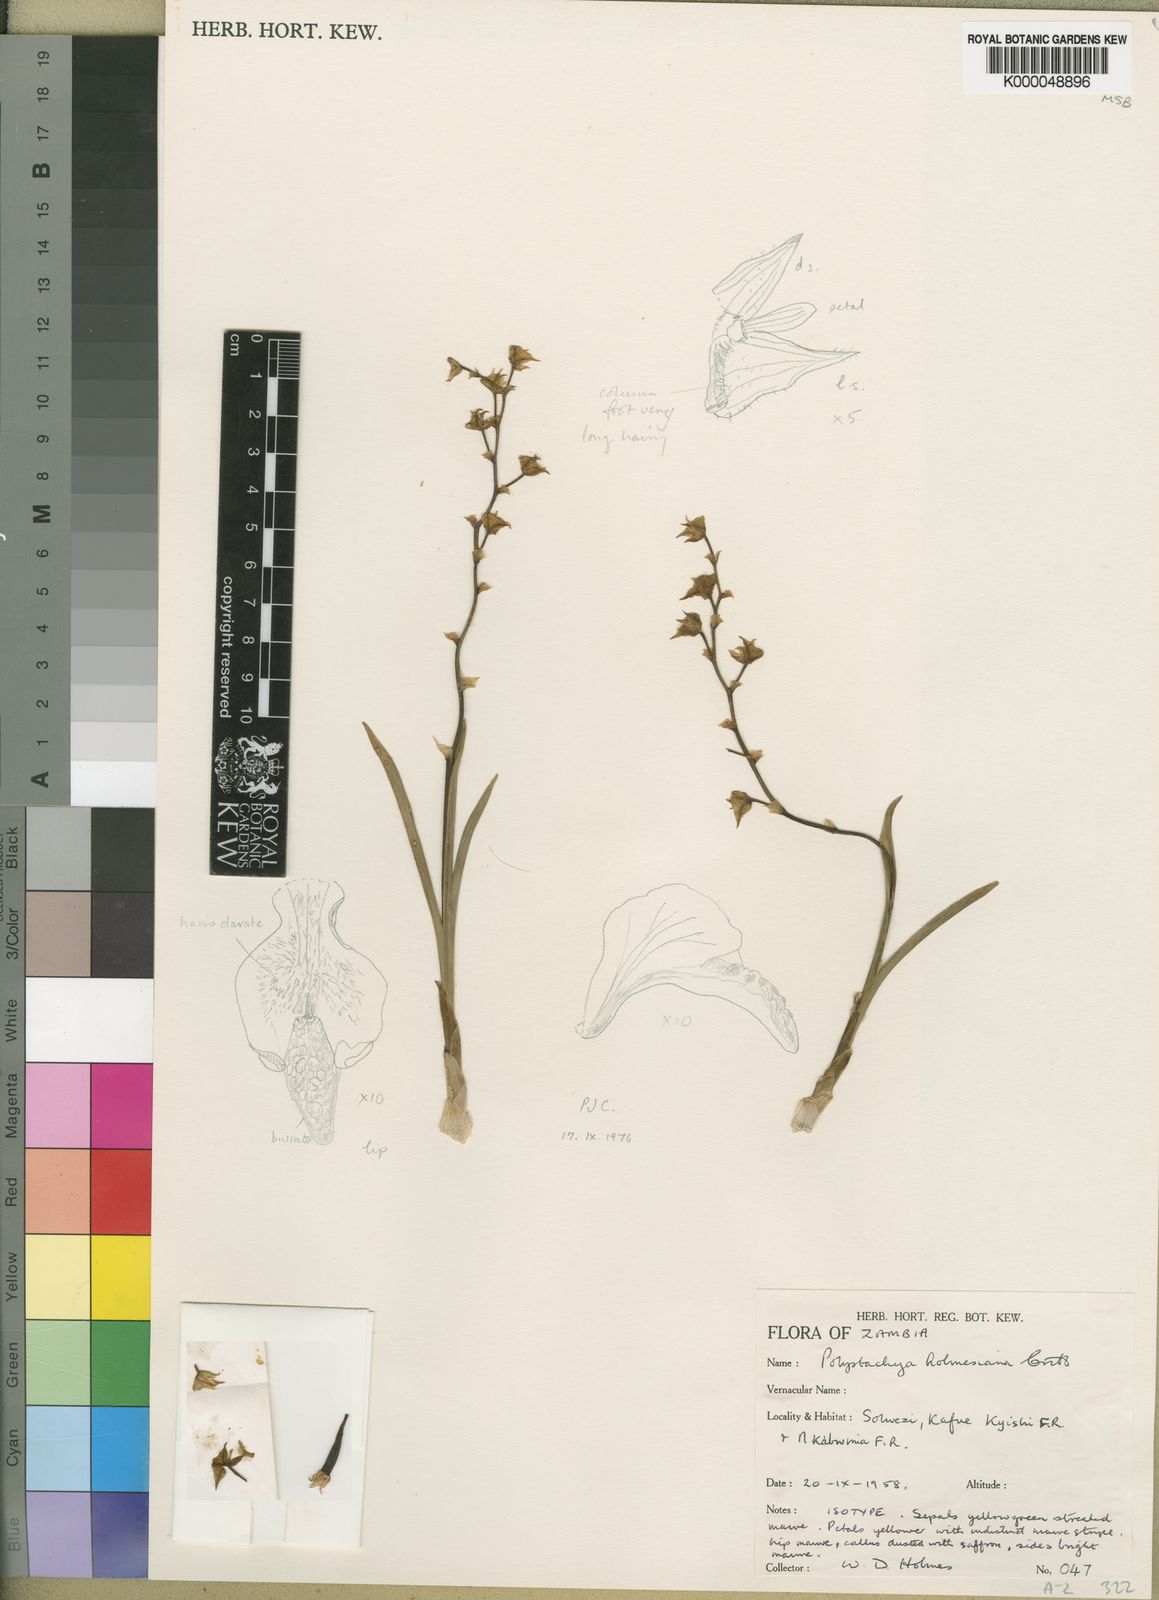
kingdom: Plantae
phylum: Tracheophyta
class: Liliopsida
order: Asparagales
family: Orchidaceae
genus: Polystachya
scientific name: Polystachya holmesiana
